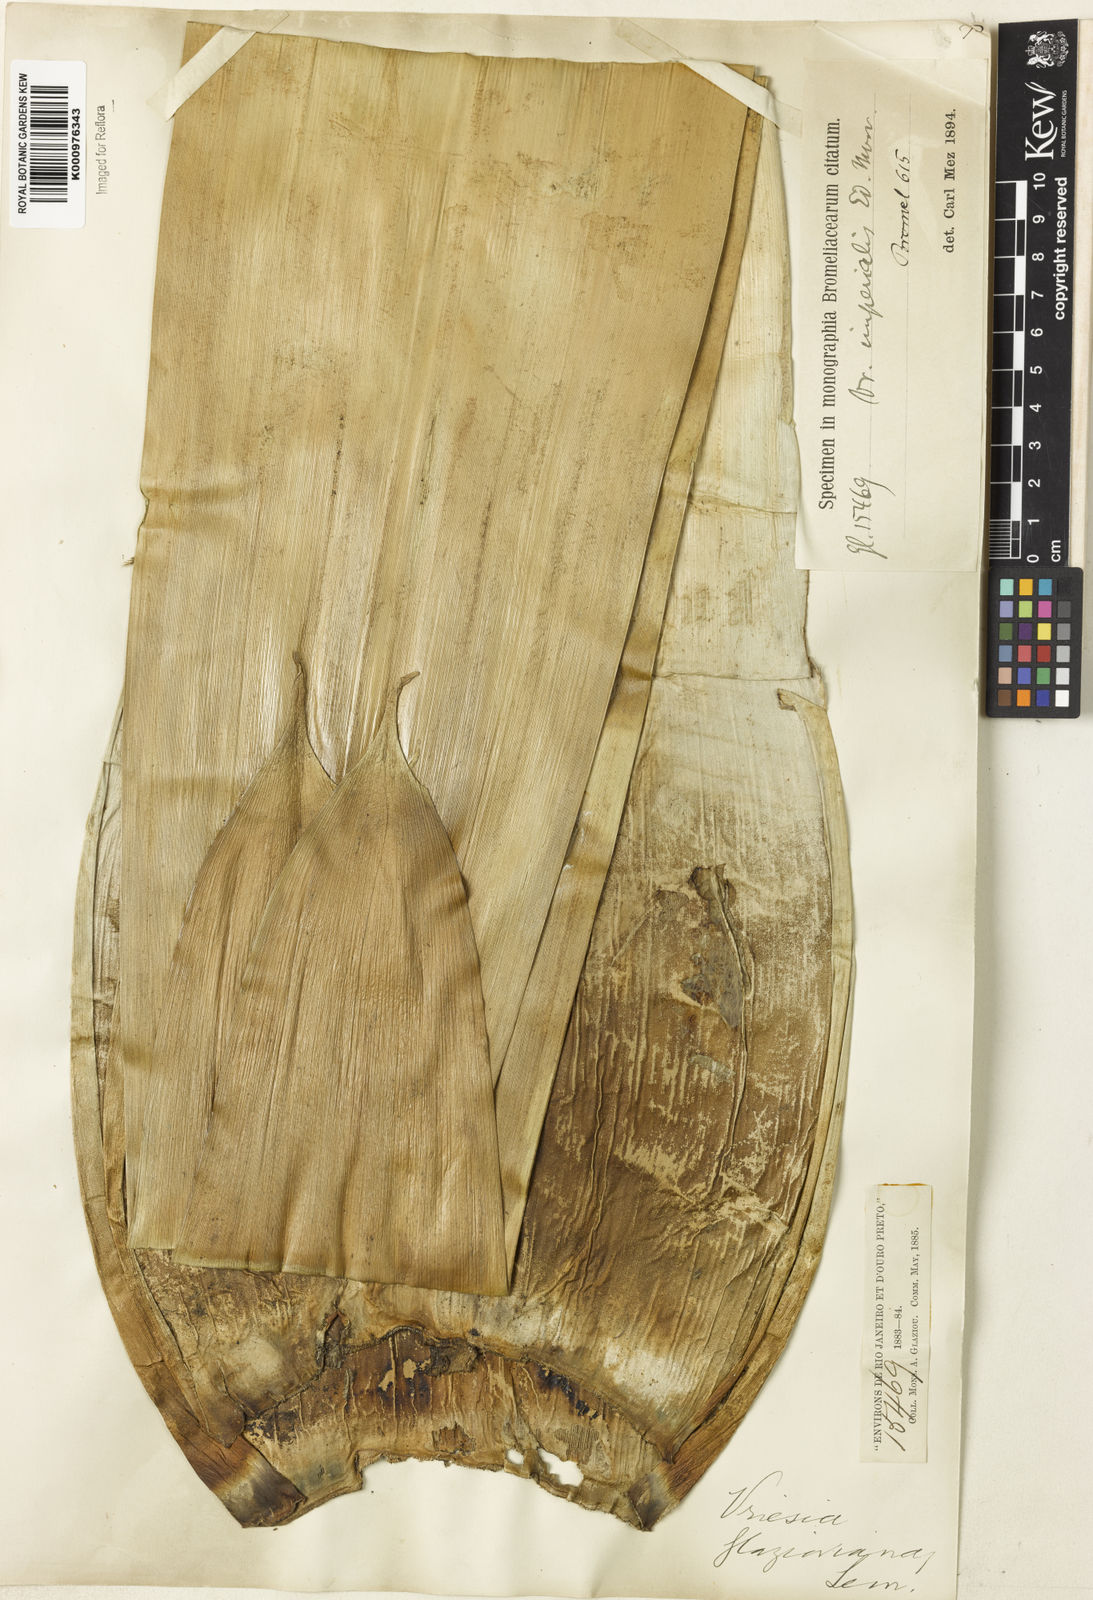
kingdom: Plantae
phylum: Tracheophyta
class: Liliopsida
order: Poales
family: Bromeliaceae
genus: Vriesea
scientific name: Vriesea
